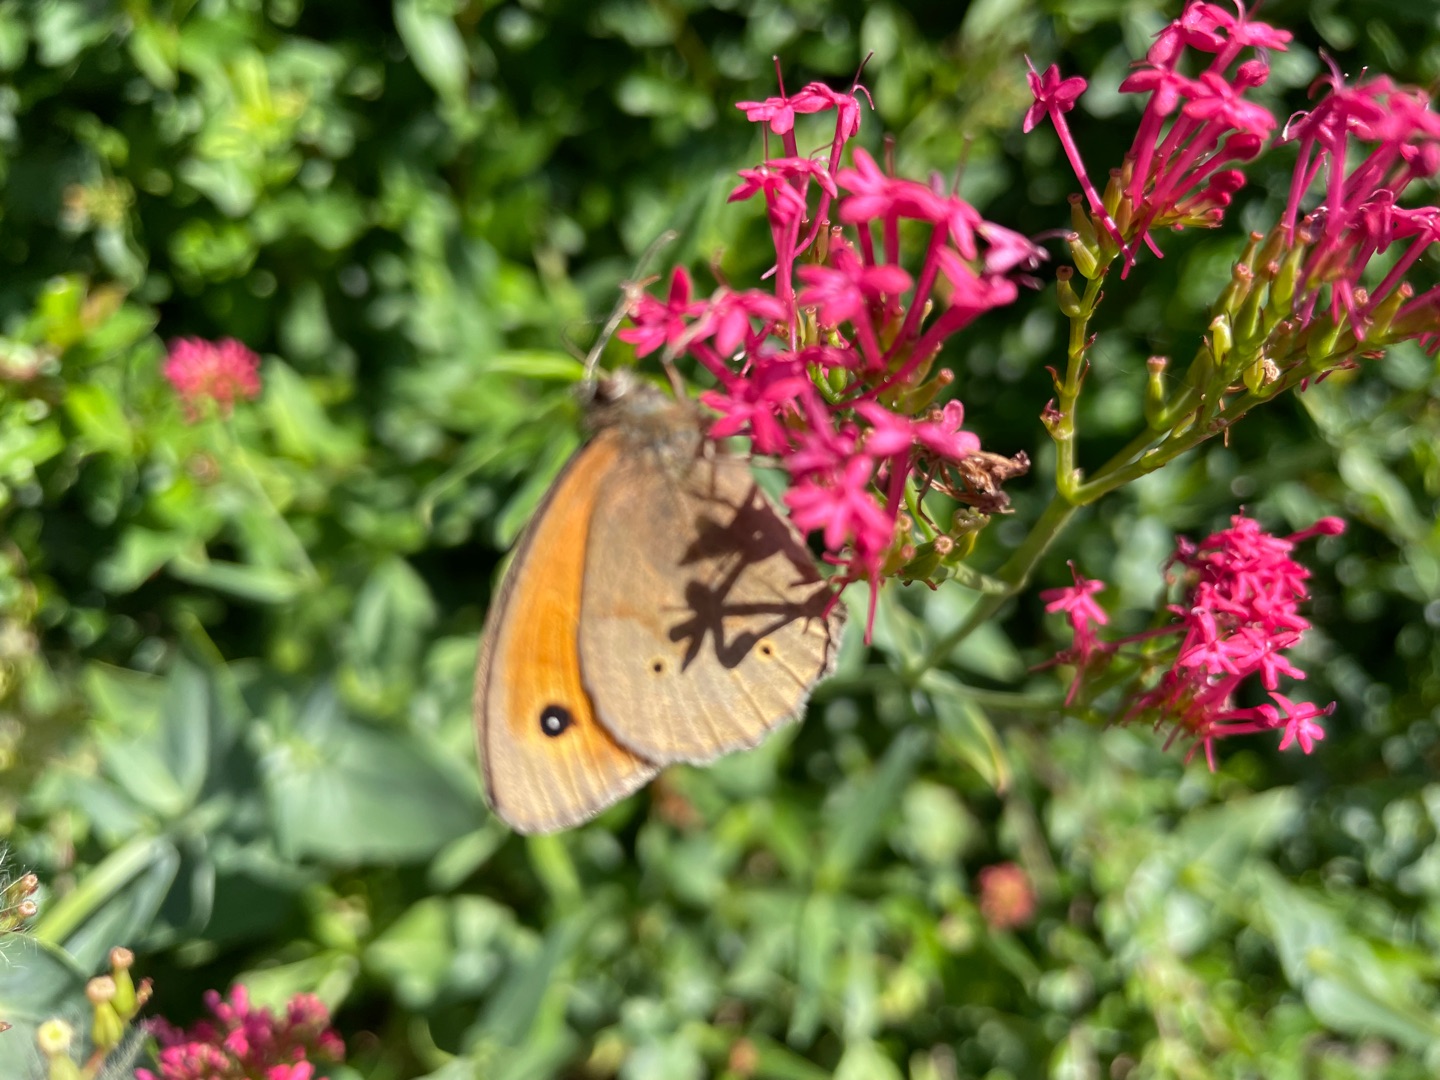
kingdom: Animalia
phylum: Arthropoda
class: Insecta
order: Lepidoptera
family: Nymphalidae
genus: Maniola
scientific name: Maniola jurtina
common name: Græsrandøje
